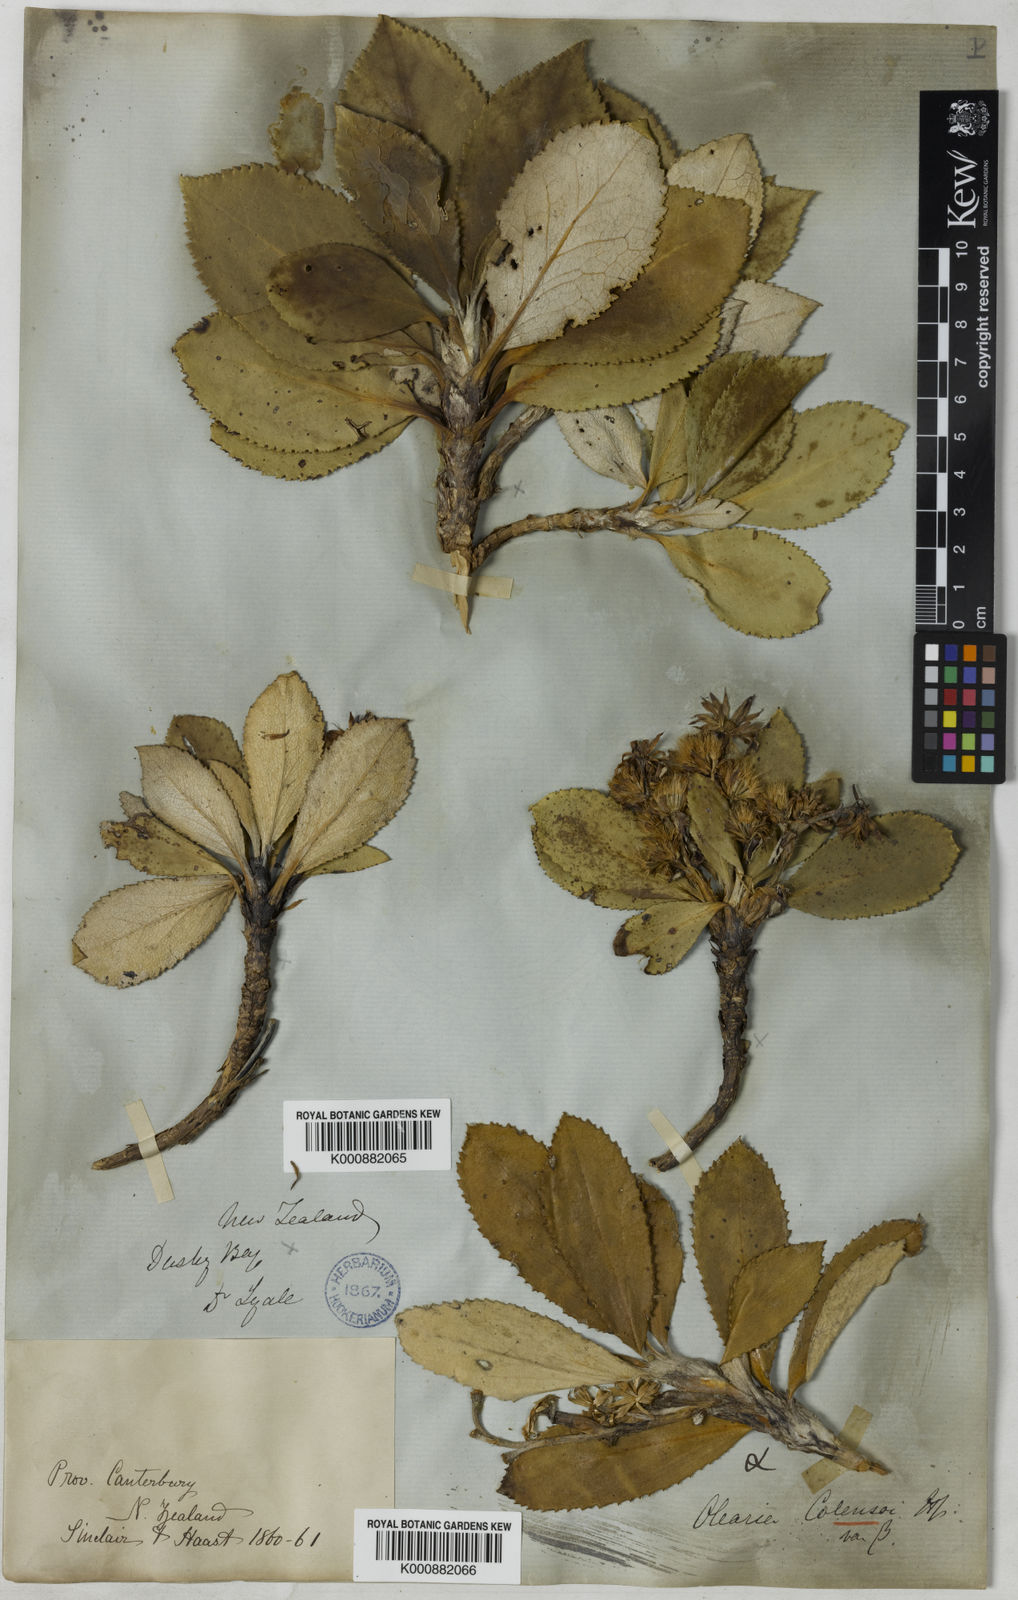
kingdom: Plantae
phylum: Tracheophyta
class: Magnoliopsida
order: Asterales
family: Asteraceae
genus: Macrolearia
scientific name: Macrolearia colensoi
